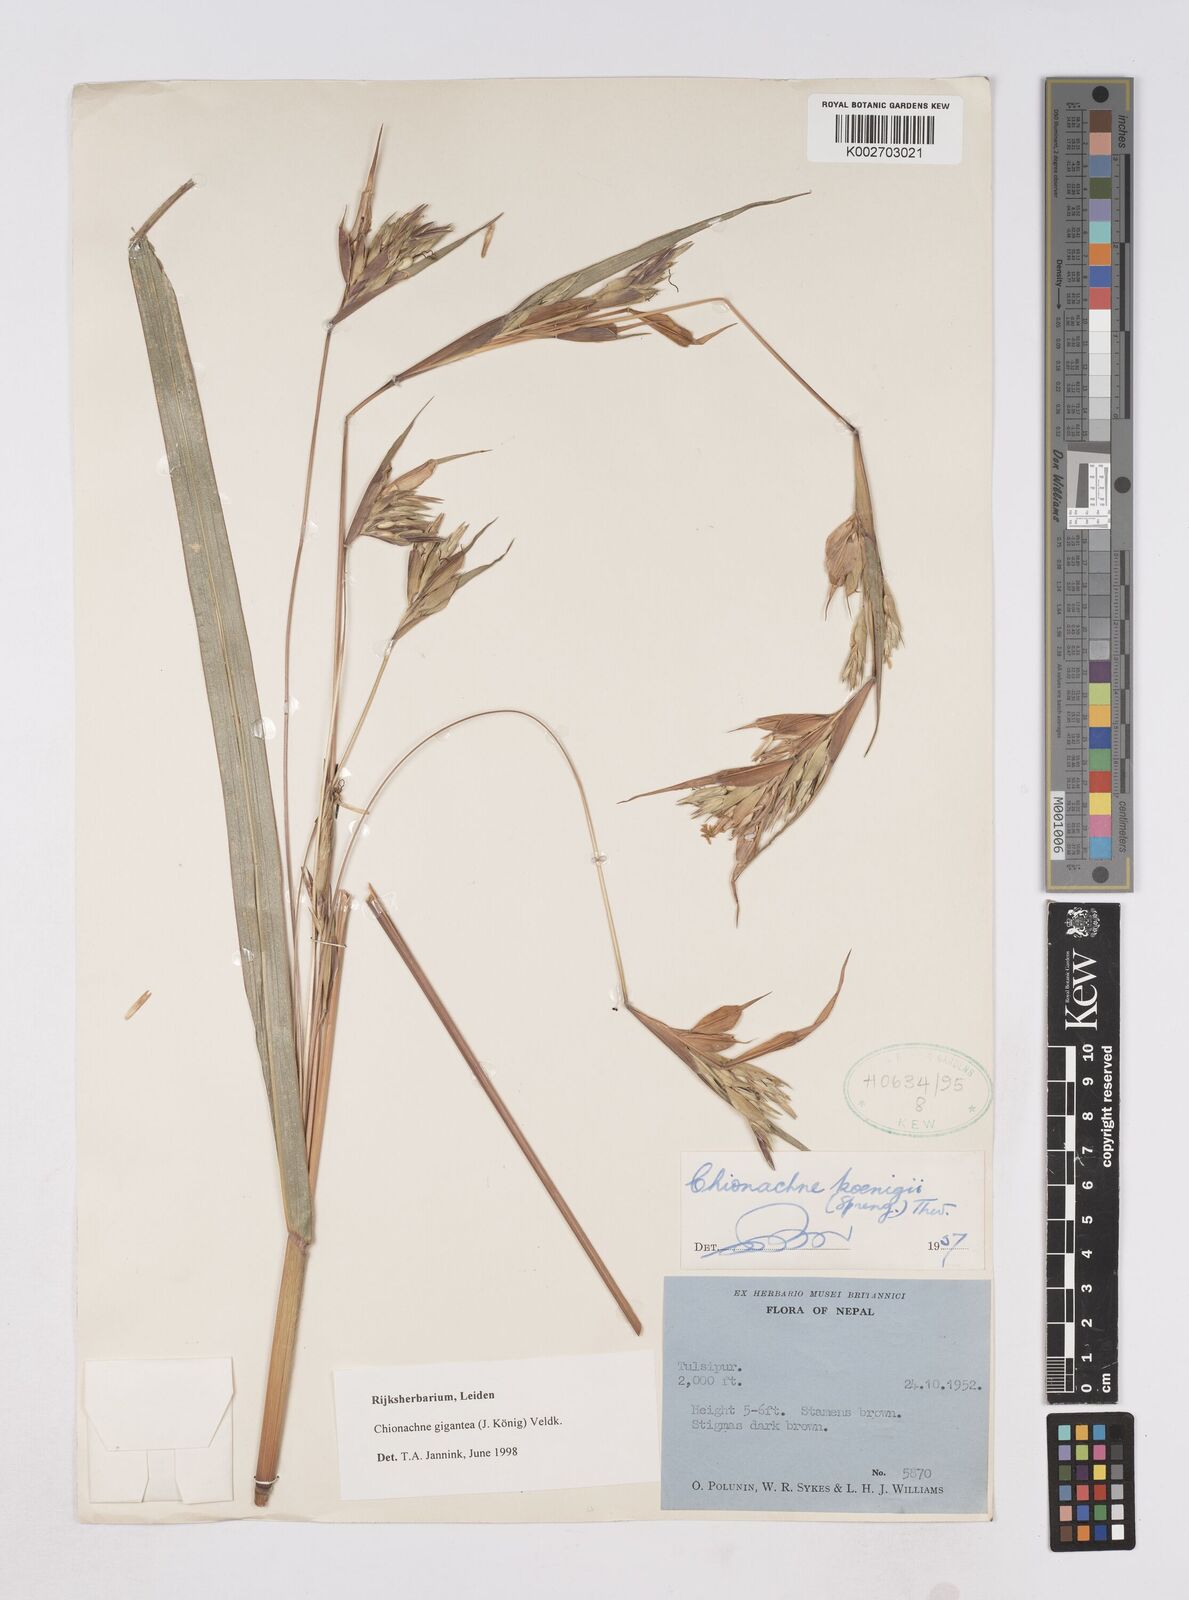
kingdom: Plantae
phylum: Tracheophyta
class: Liliopsida
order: Poales
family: Poaceae
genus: Polytoca
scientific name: Polytoca gigantea
